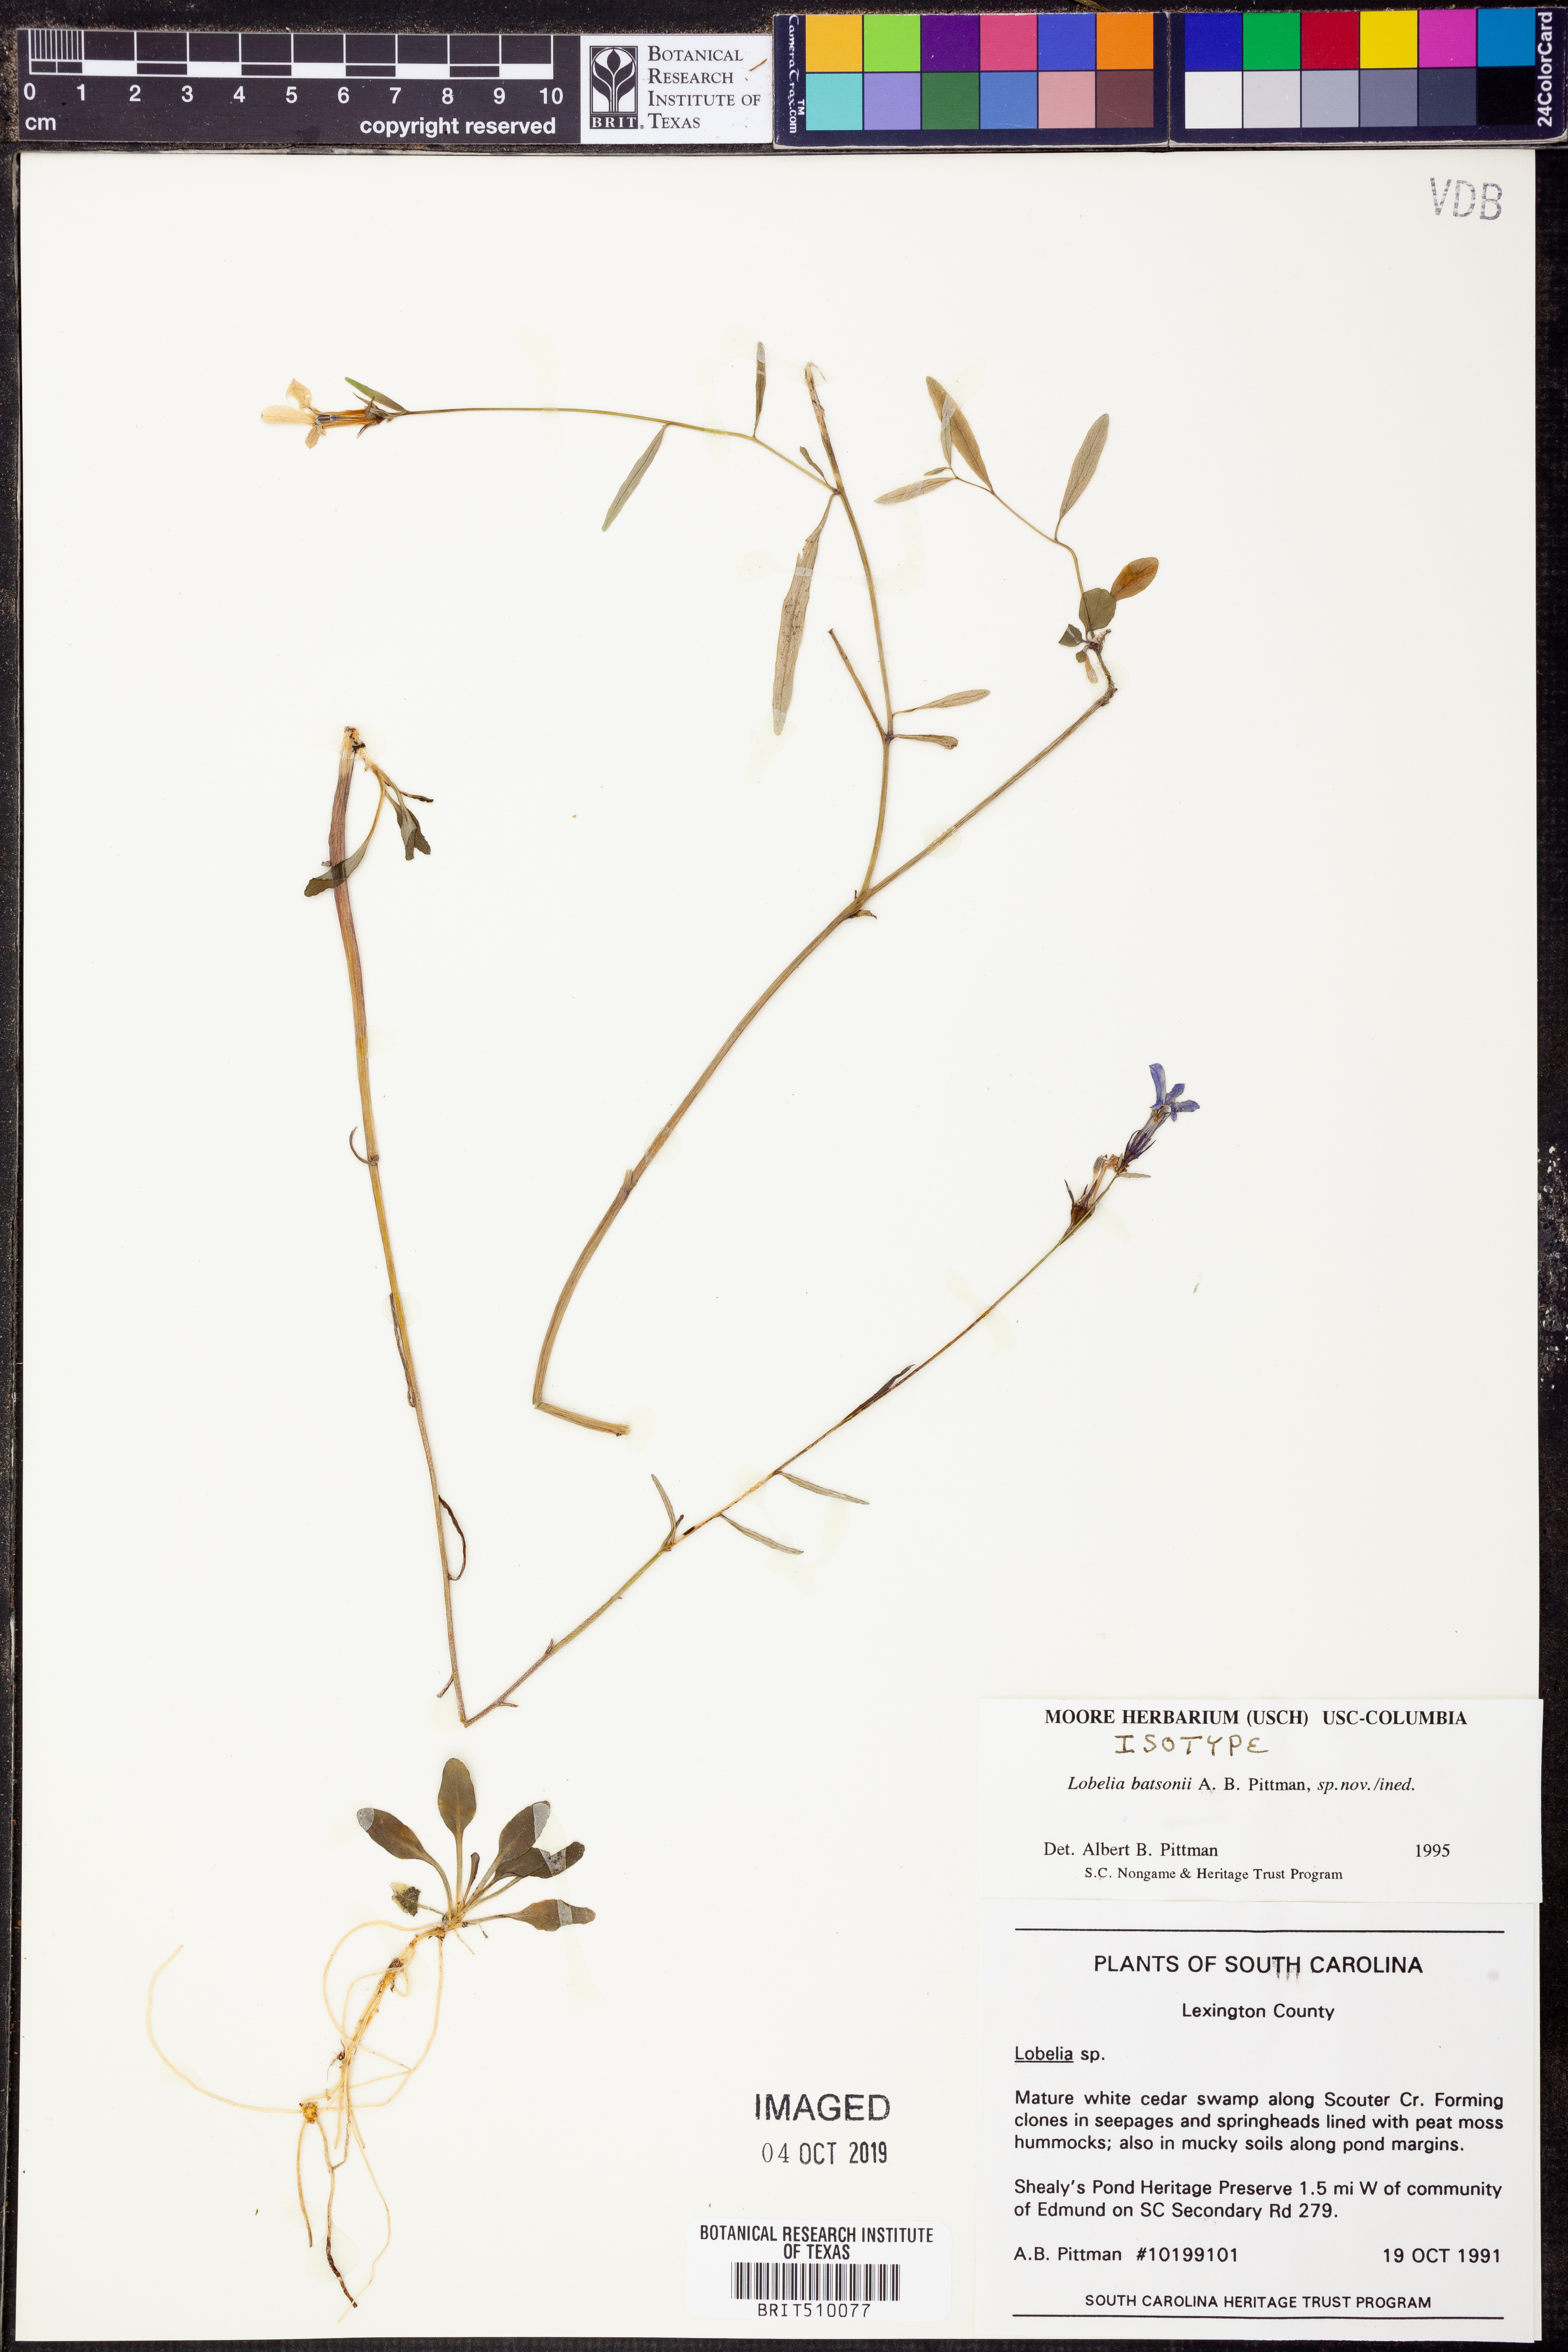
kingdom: Plantae
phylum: Tracheophyta
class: Magnoliopsida
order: Asterales
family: Campanulaceae
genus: Lobelia
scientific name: Lobelia batsonii
